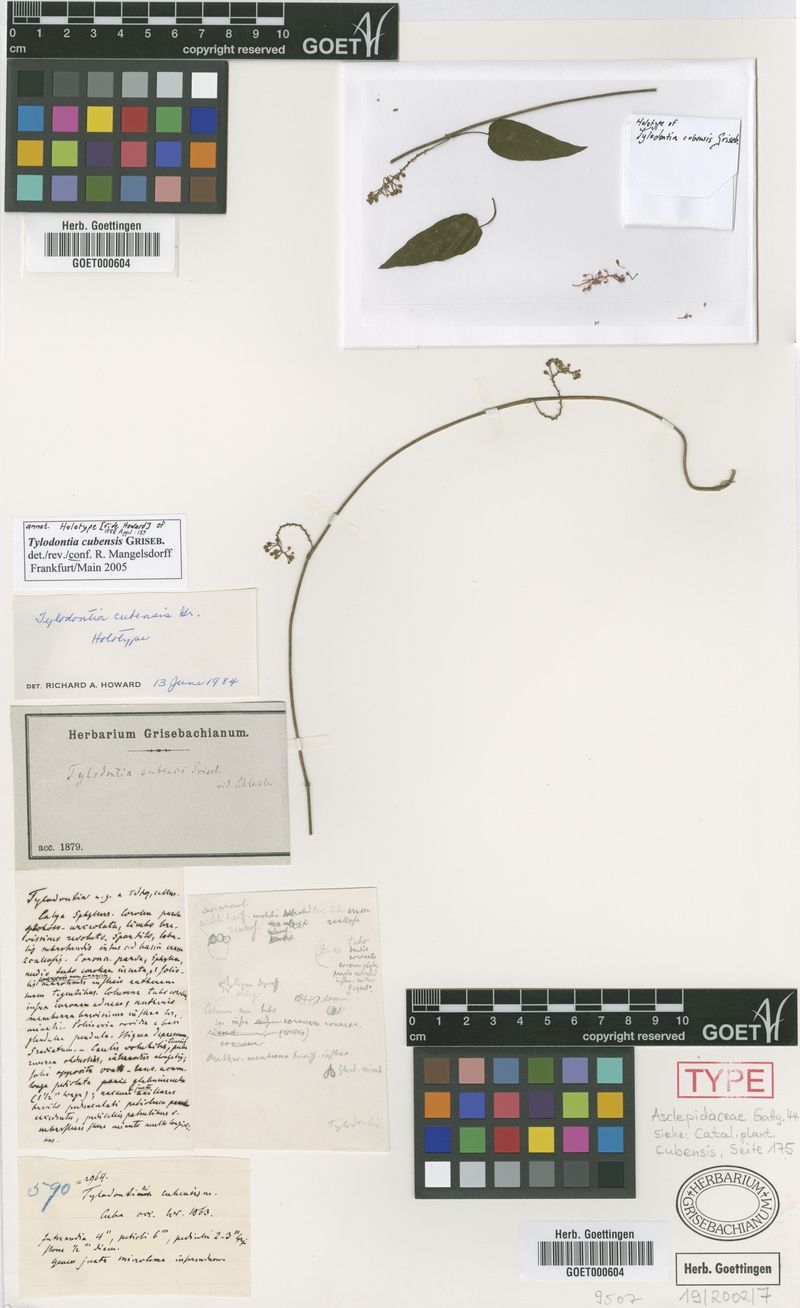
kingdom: Plantae
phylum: Tracheophyta
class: Magnoliopsida
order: Gentianales
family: Apocynaceae
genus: Tylodontia
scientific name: Tylodontia cubensis
